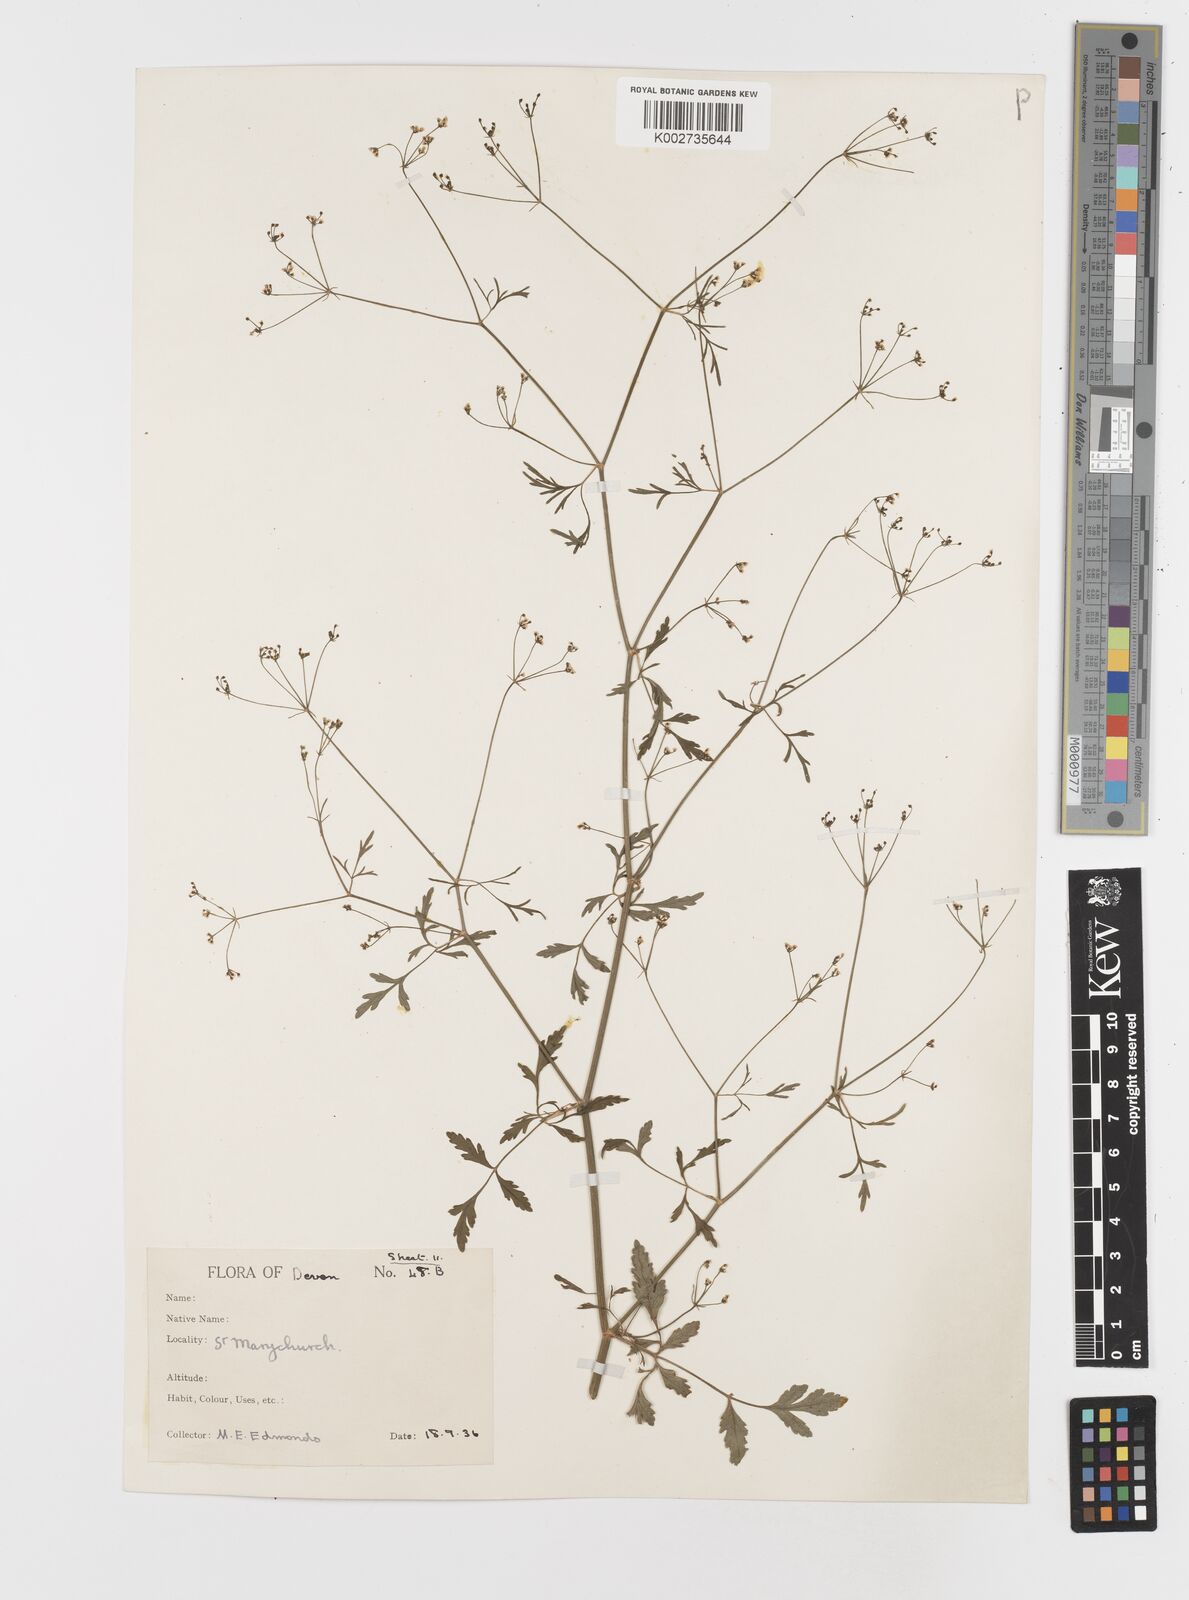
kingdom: Plantae
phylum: Tracheophyta
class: Magnoliopsida
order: Apiales
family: Apiaceae
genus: Sison
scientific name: Sison amomum
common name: Stone-parsley
